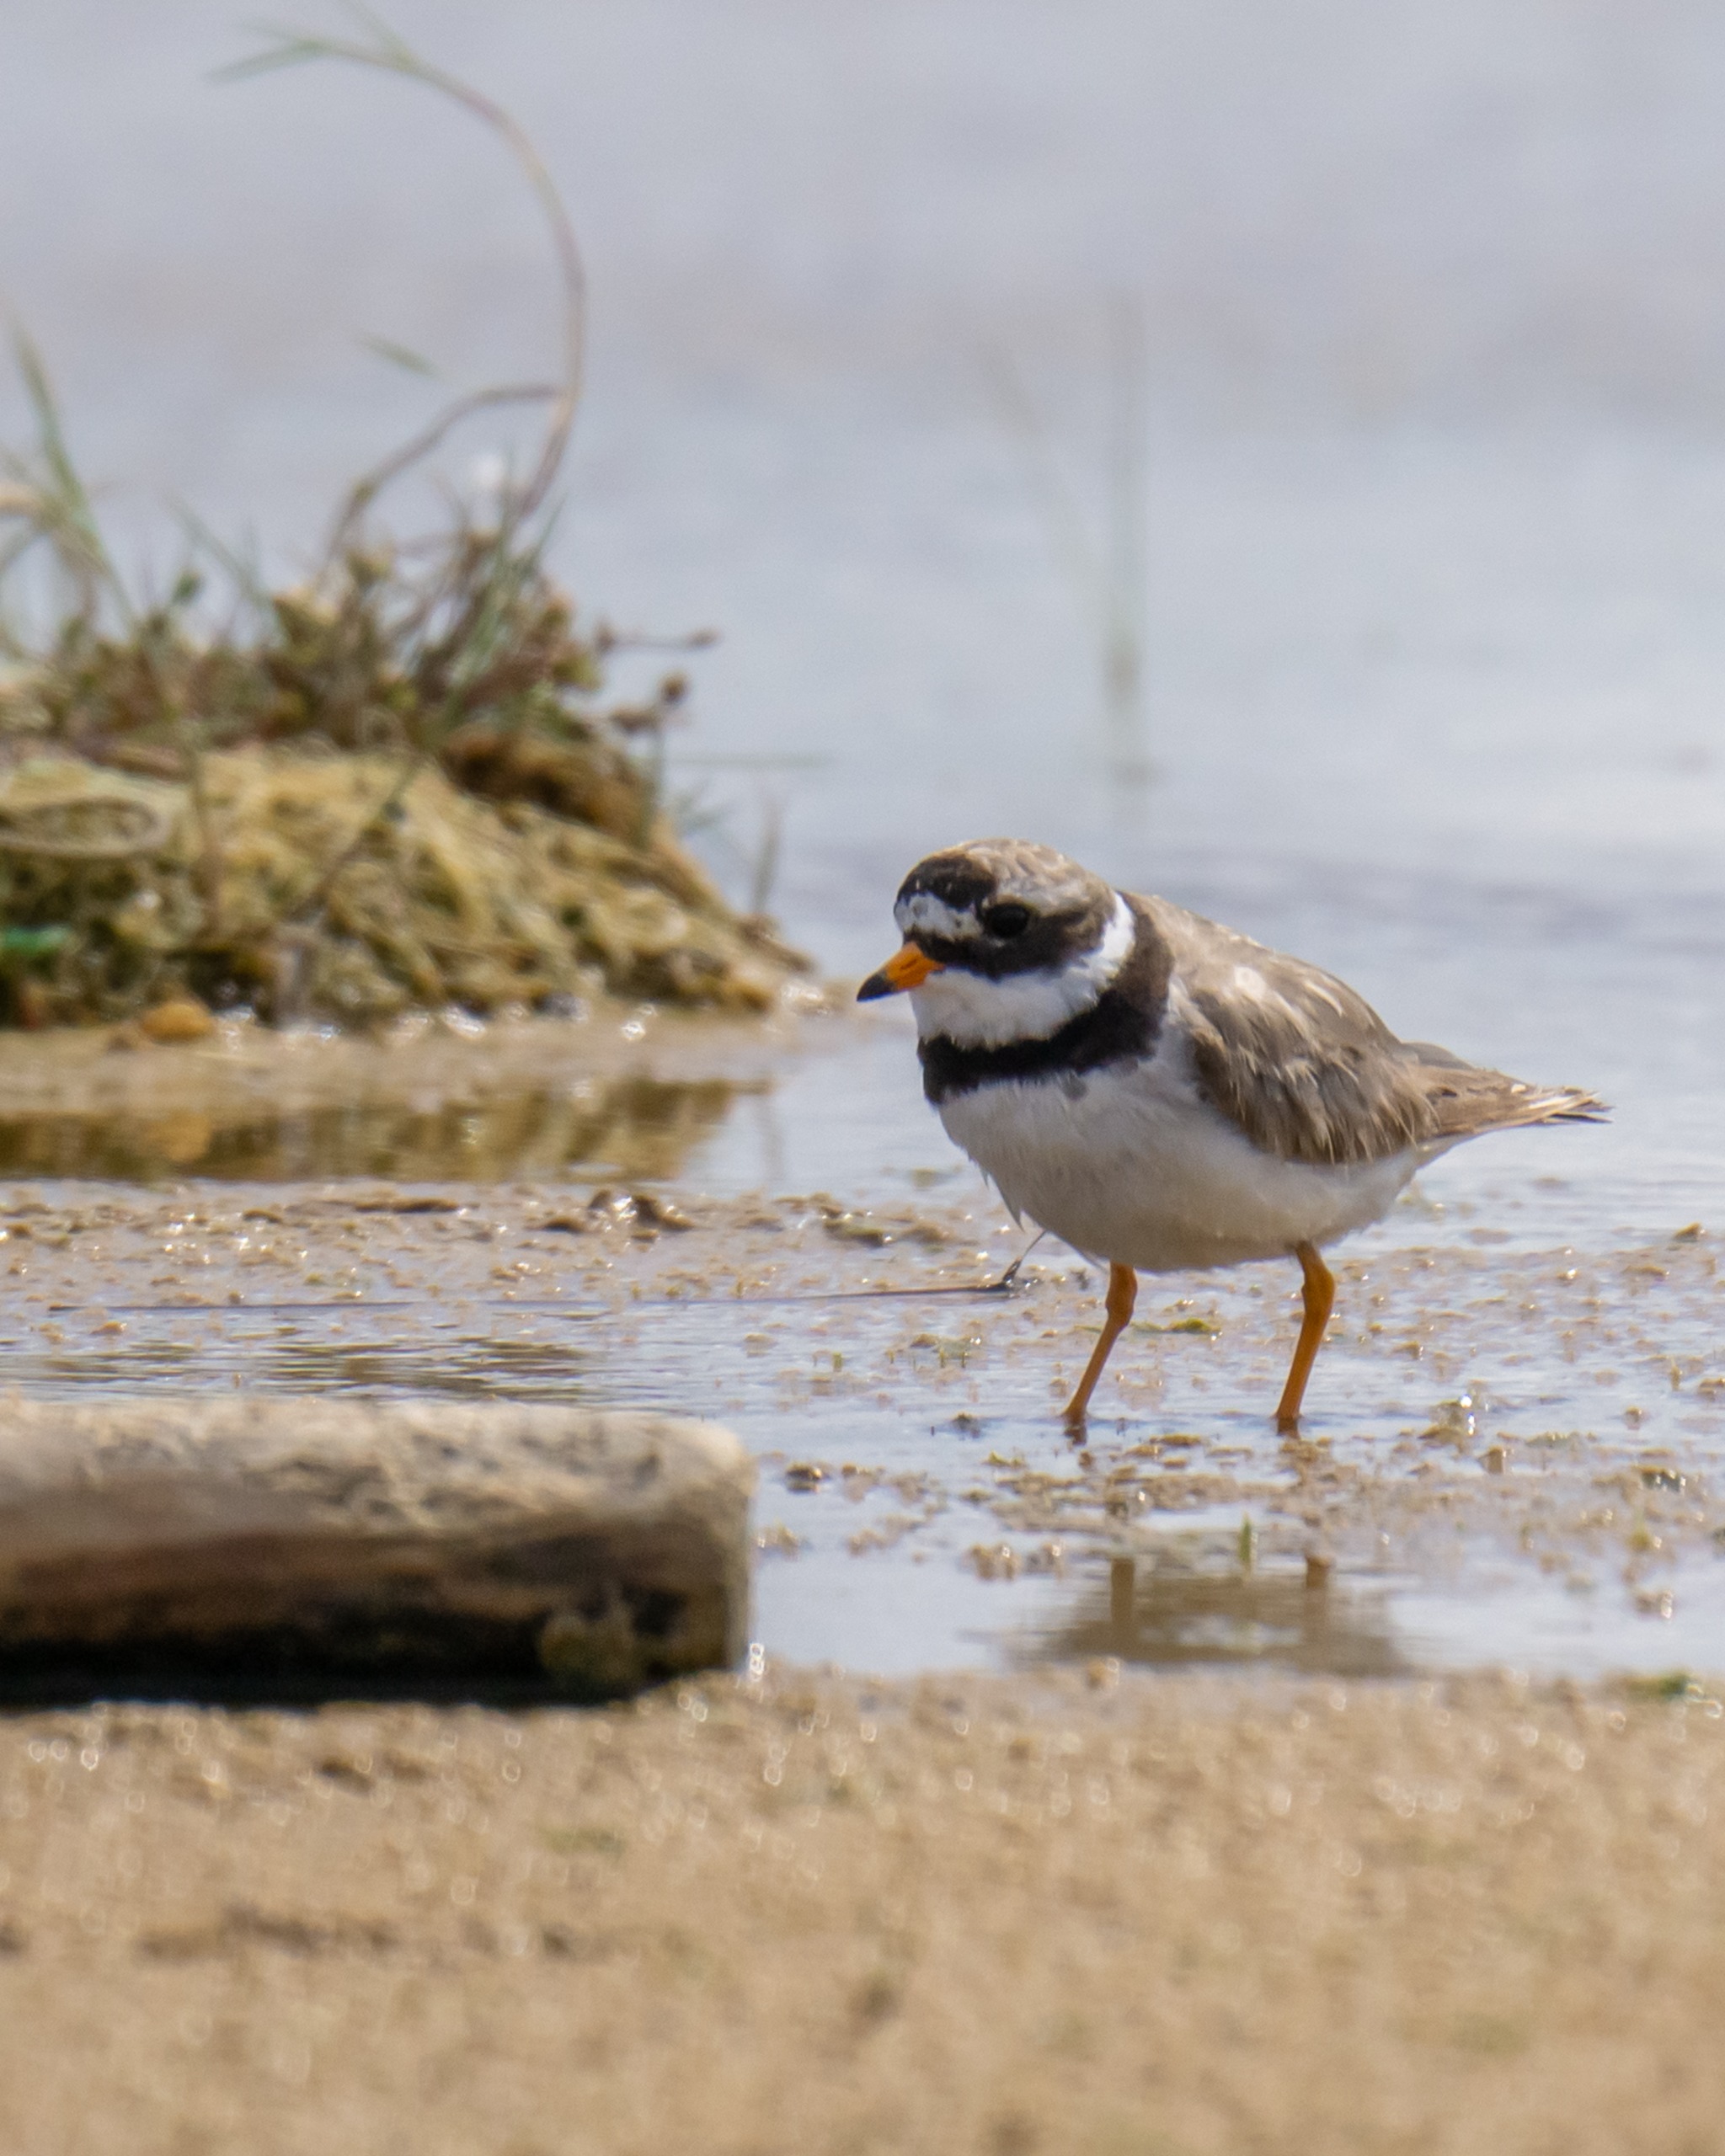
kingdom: Animalia
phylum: Chordata
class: Aves
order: Charadriiformes
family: Charadriidae
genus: Charadrius
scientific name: Charadrius hiaticula
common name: Stor præstekrave
